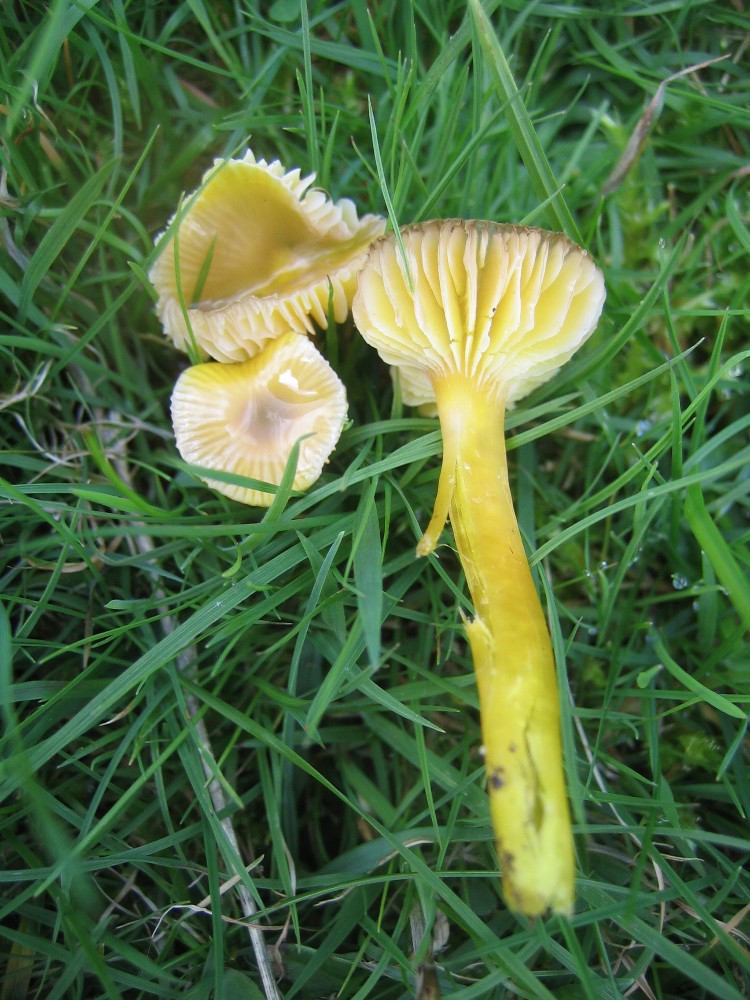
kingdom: Fungi
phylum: Basidiomycota
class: Agaricomycetes
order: Agaricales
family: Hygrophoraceae
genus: Hygrocybe
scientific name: Hygrocybe ceracea
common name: voksgul vokshat
